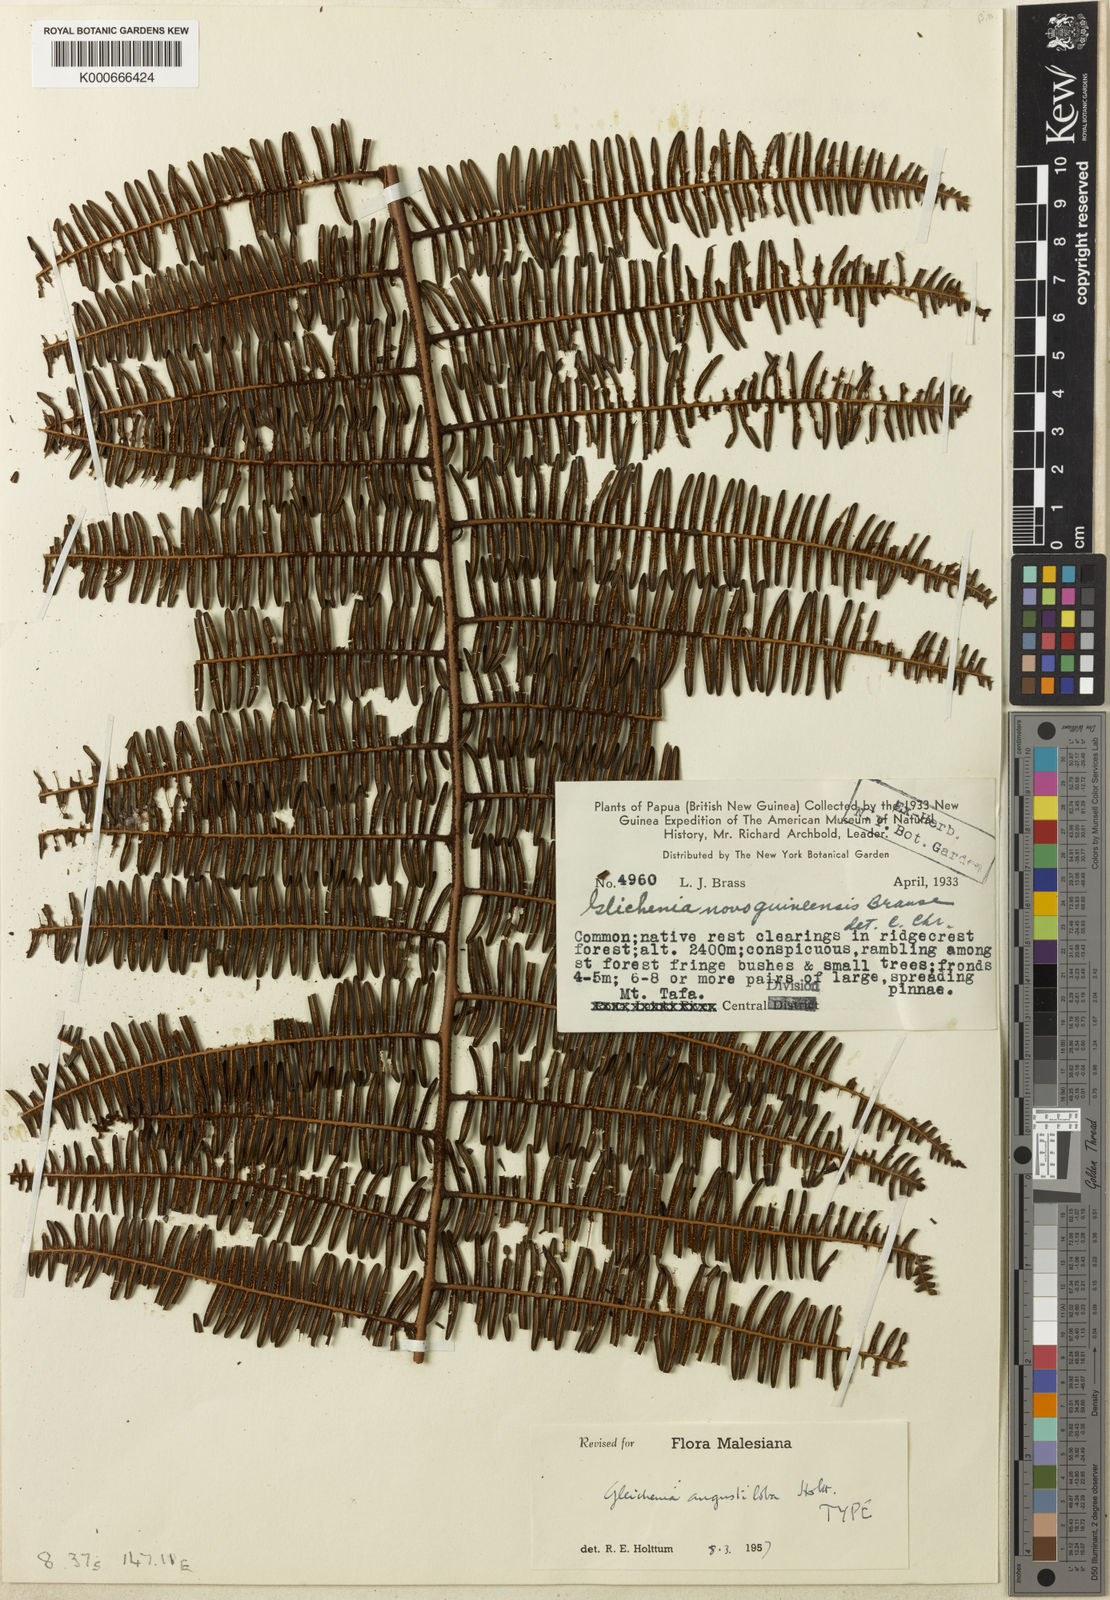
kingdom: Plantae
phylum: Tracheophyta
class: Polypodiopsida
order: Gleicheniales
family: Gleicheniaceae
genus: Diplopterygium
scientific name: Diplopterygium angustilobum
